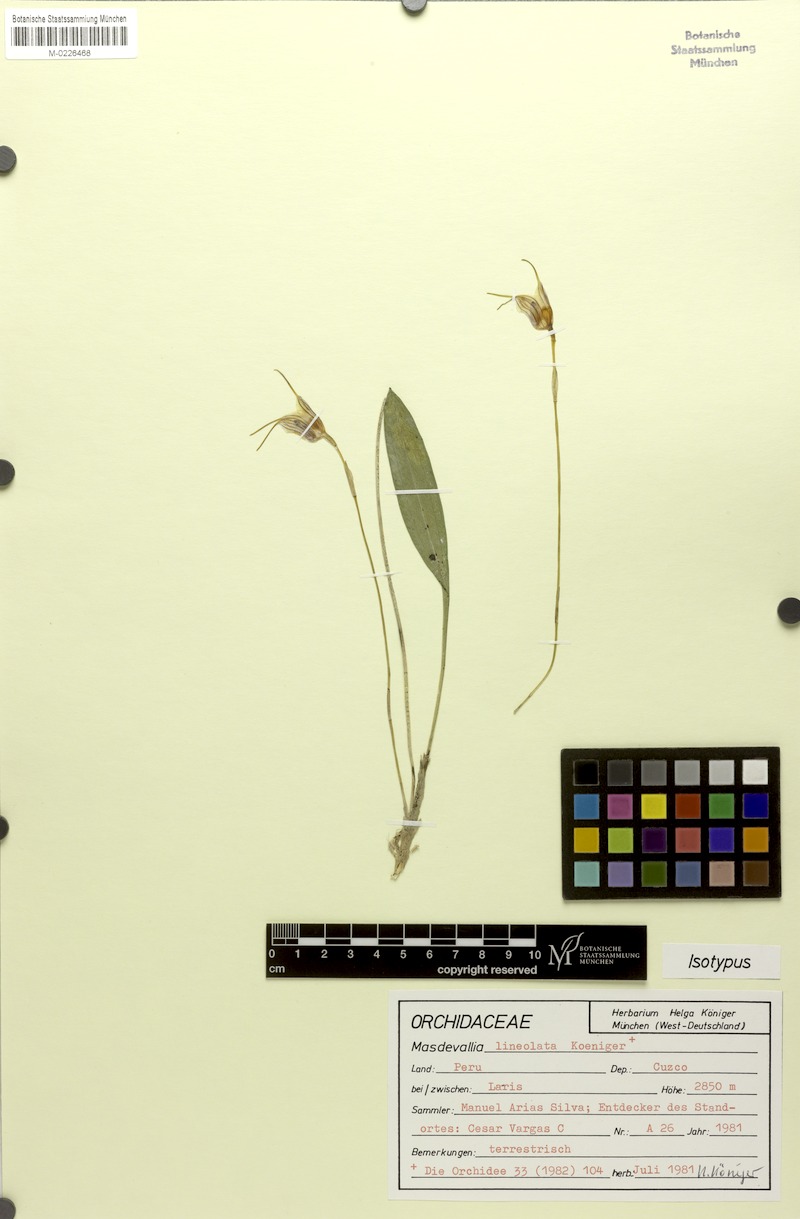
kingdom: Plantae
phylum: Tracheophyta
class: Liliopsida
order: Asparagales
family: Orchidaceae
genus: Masdevallia
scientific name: Masdevallia lineolata
